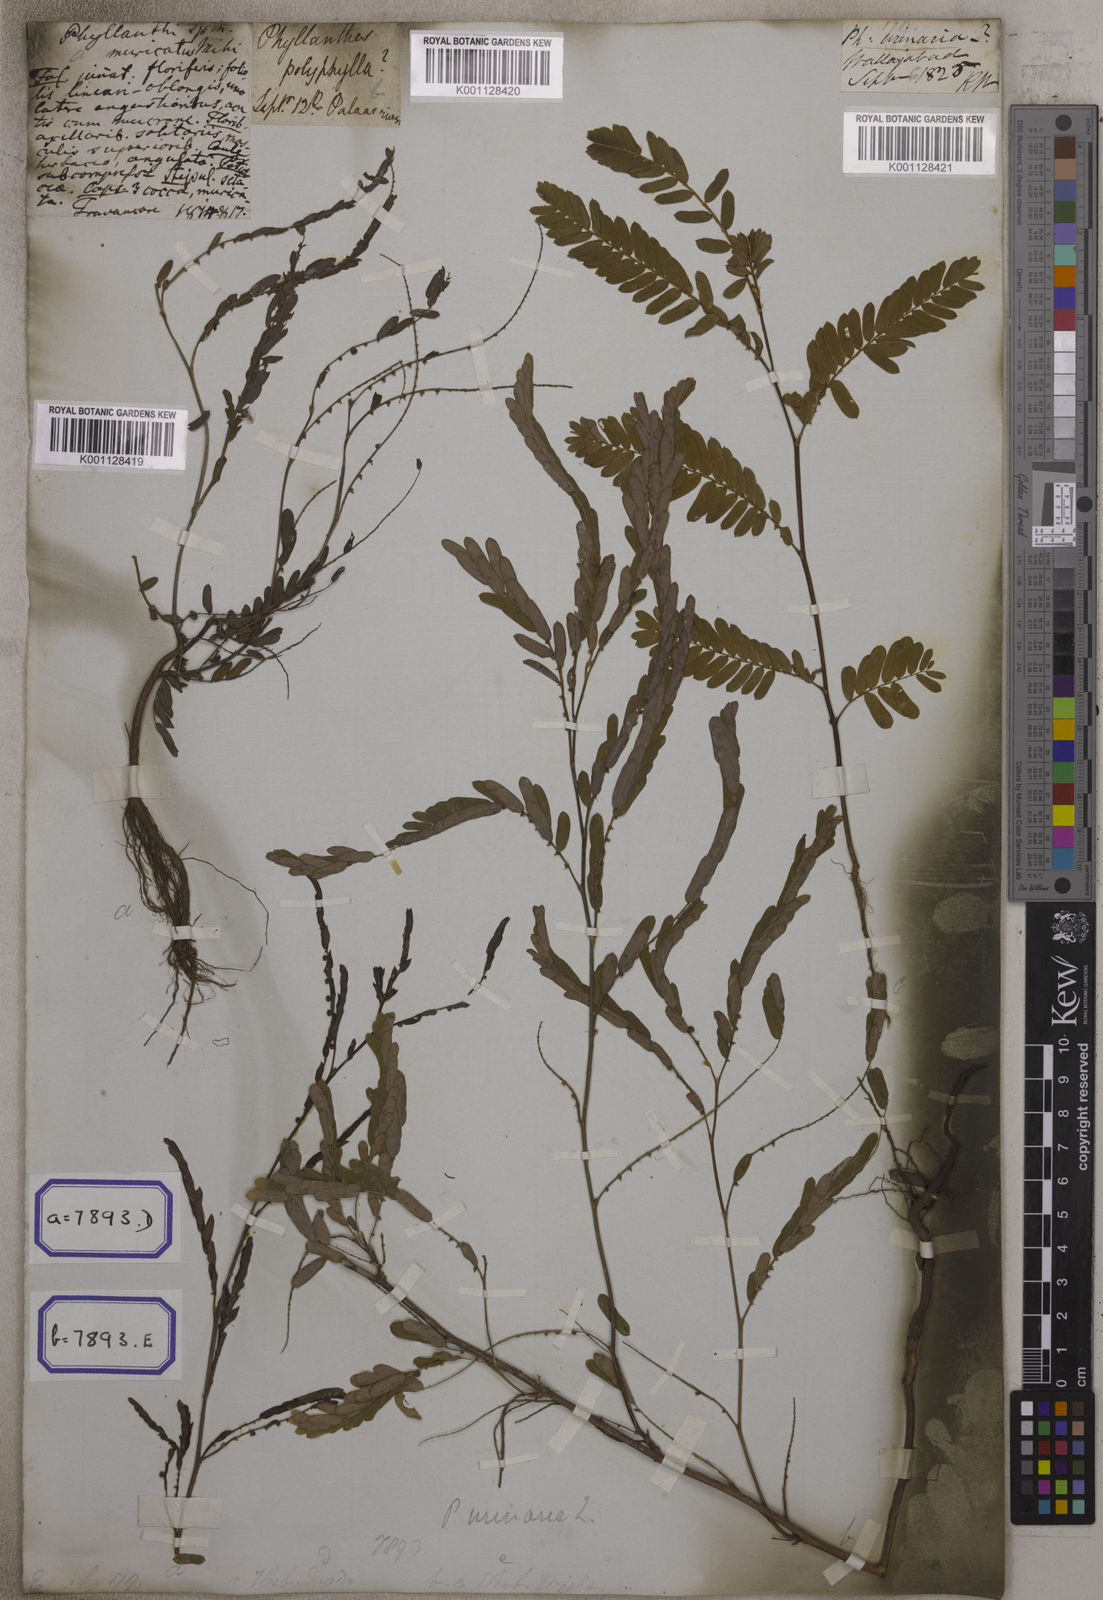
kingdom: Plantae
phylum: Tracheophyta
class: Magnoliopsida
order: Malpighiales
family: Euphorbiaceae
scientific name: Euphorbiaceae
